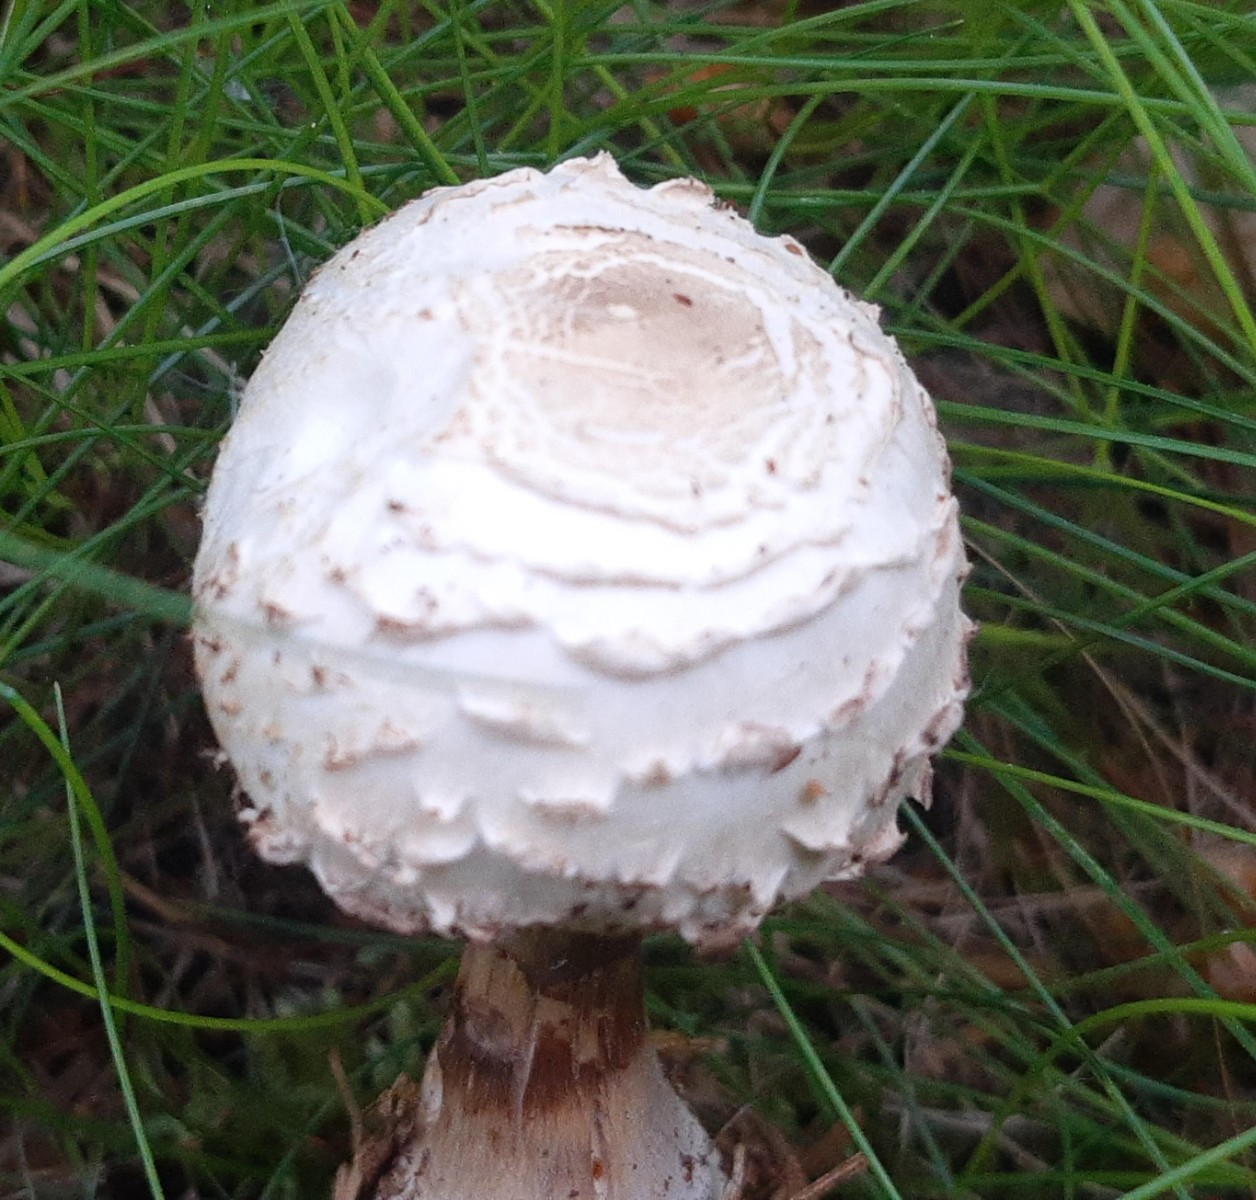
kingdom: Fungi
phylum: Basidiomycota
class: Agaricomycetes
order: Agaricales
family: Agaricaceae
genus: Leucoagaricus
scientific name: Leucoagaricus nympharum
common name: gran-silkehat
